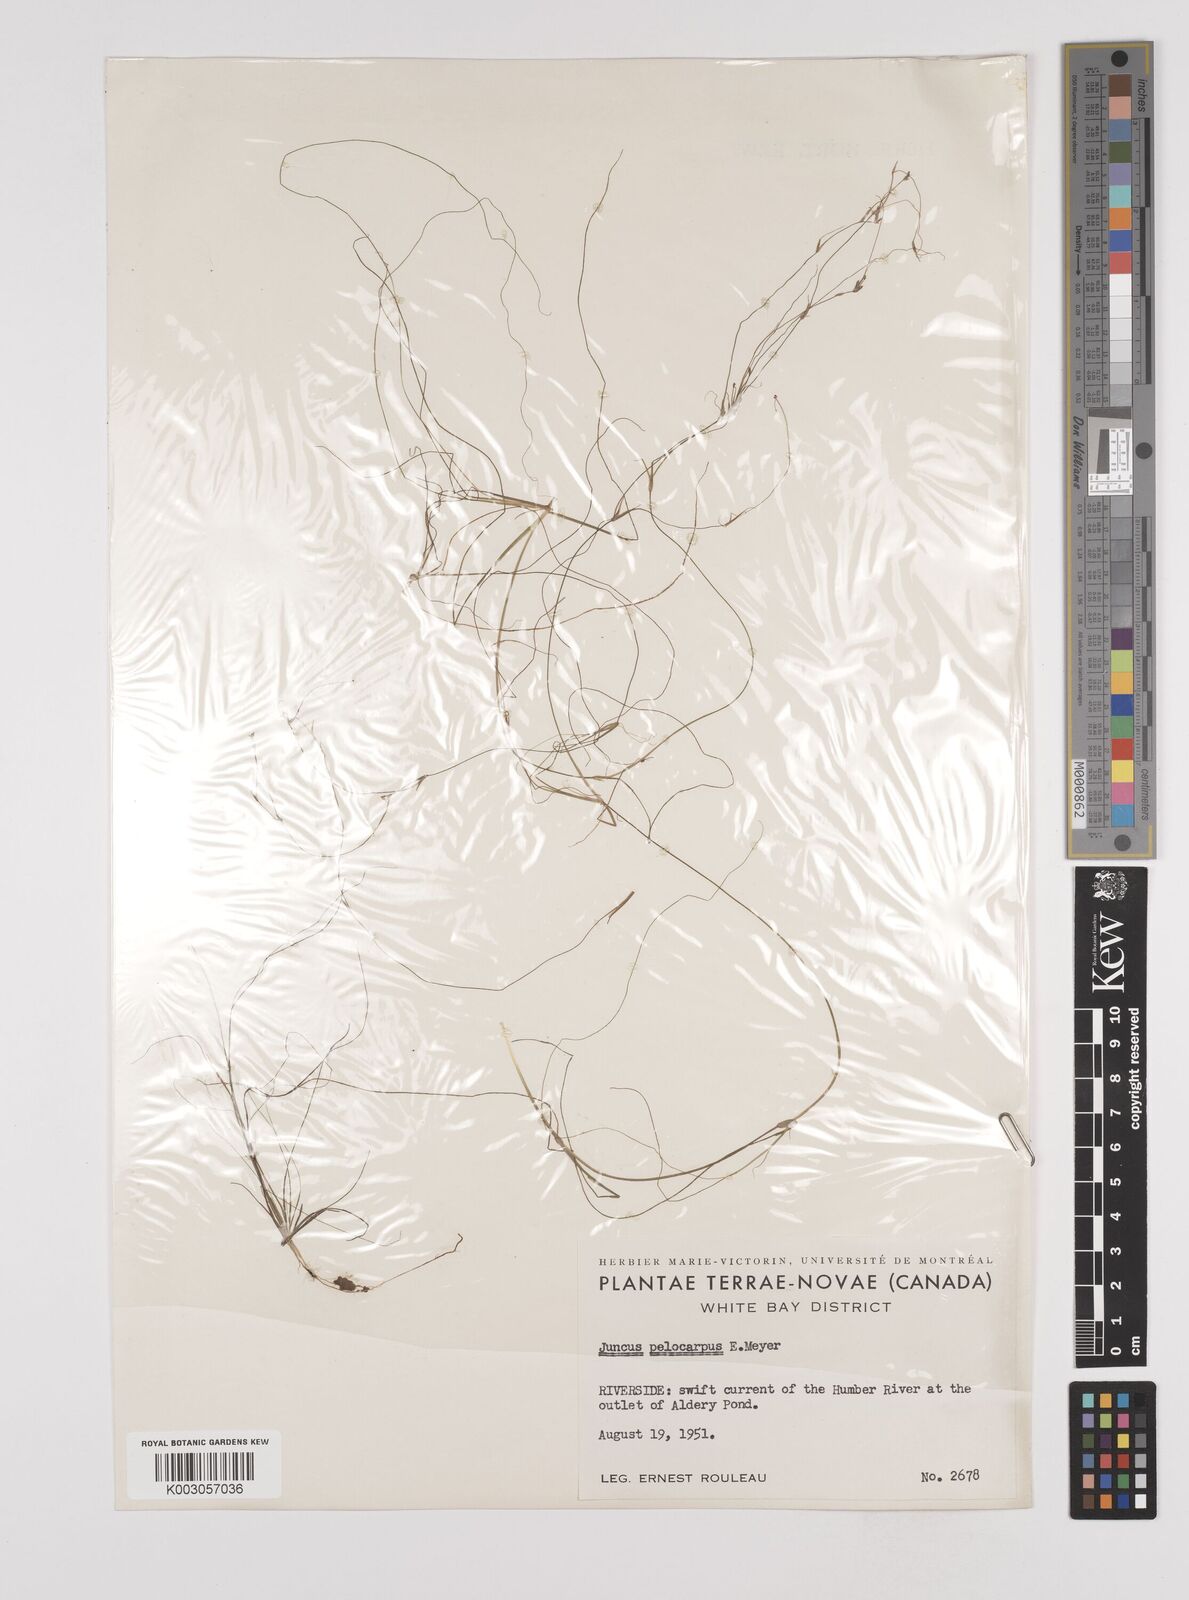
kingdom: Plantae
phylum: Tracheophyta
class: Liliopsida
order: Poales
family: Juncaceae
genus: Juncus
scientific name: Juncus pelocarpus
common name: Brown-fruited rush
